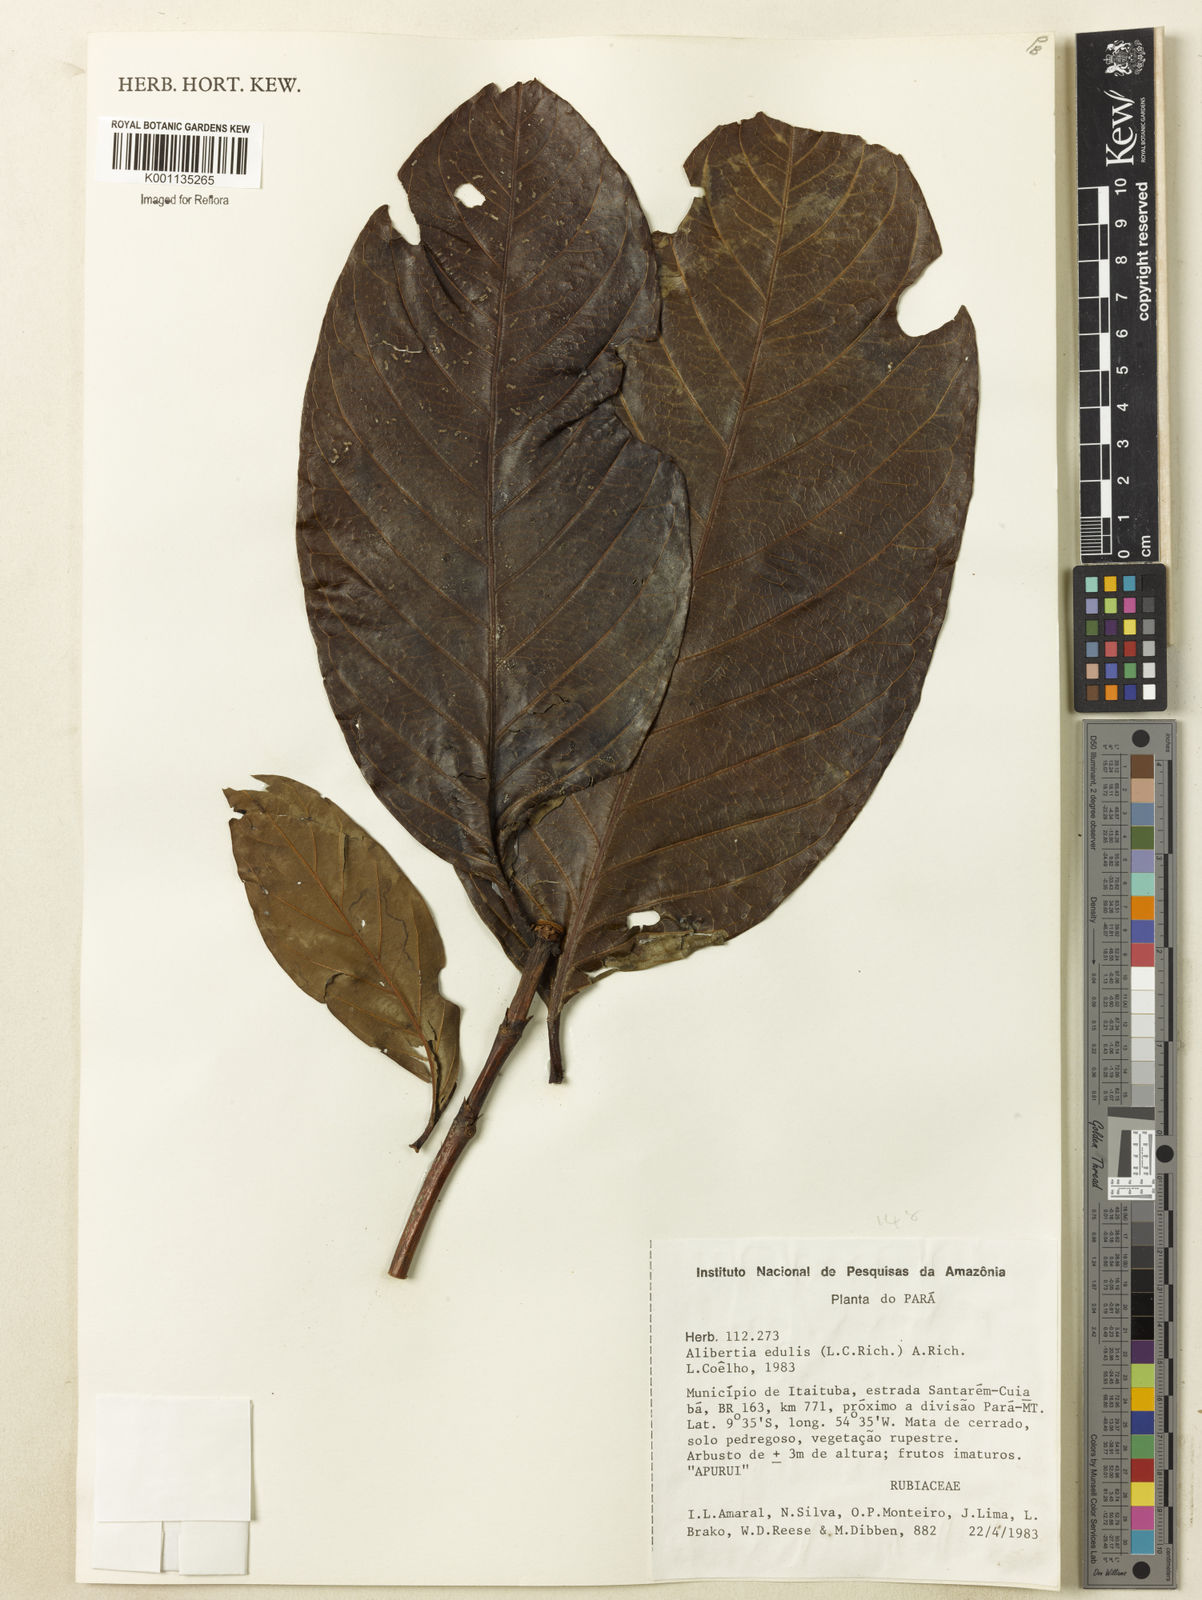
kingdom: Plantae
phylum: Tracheophyta
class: Magnoliopsida
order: Gentianales
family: Rubiaceae
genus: Alibertia
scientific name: Alibertia edulis
